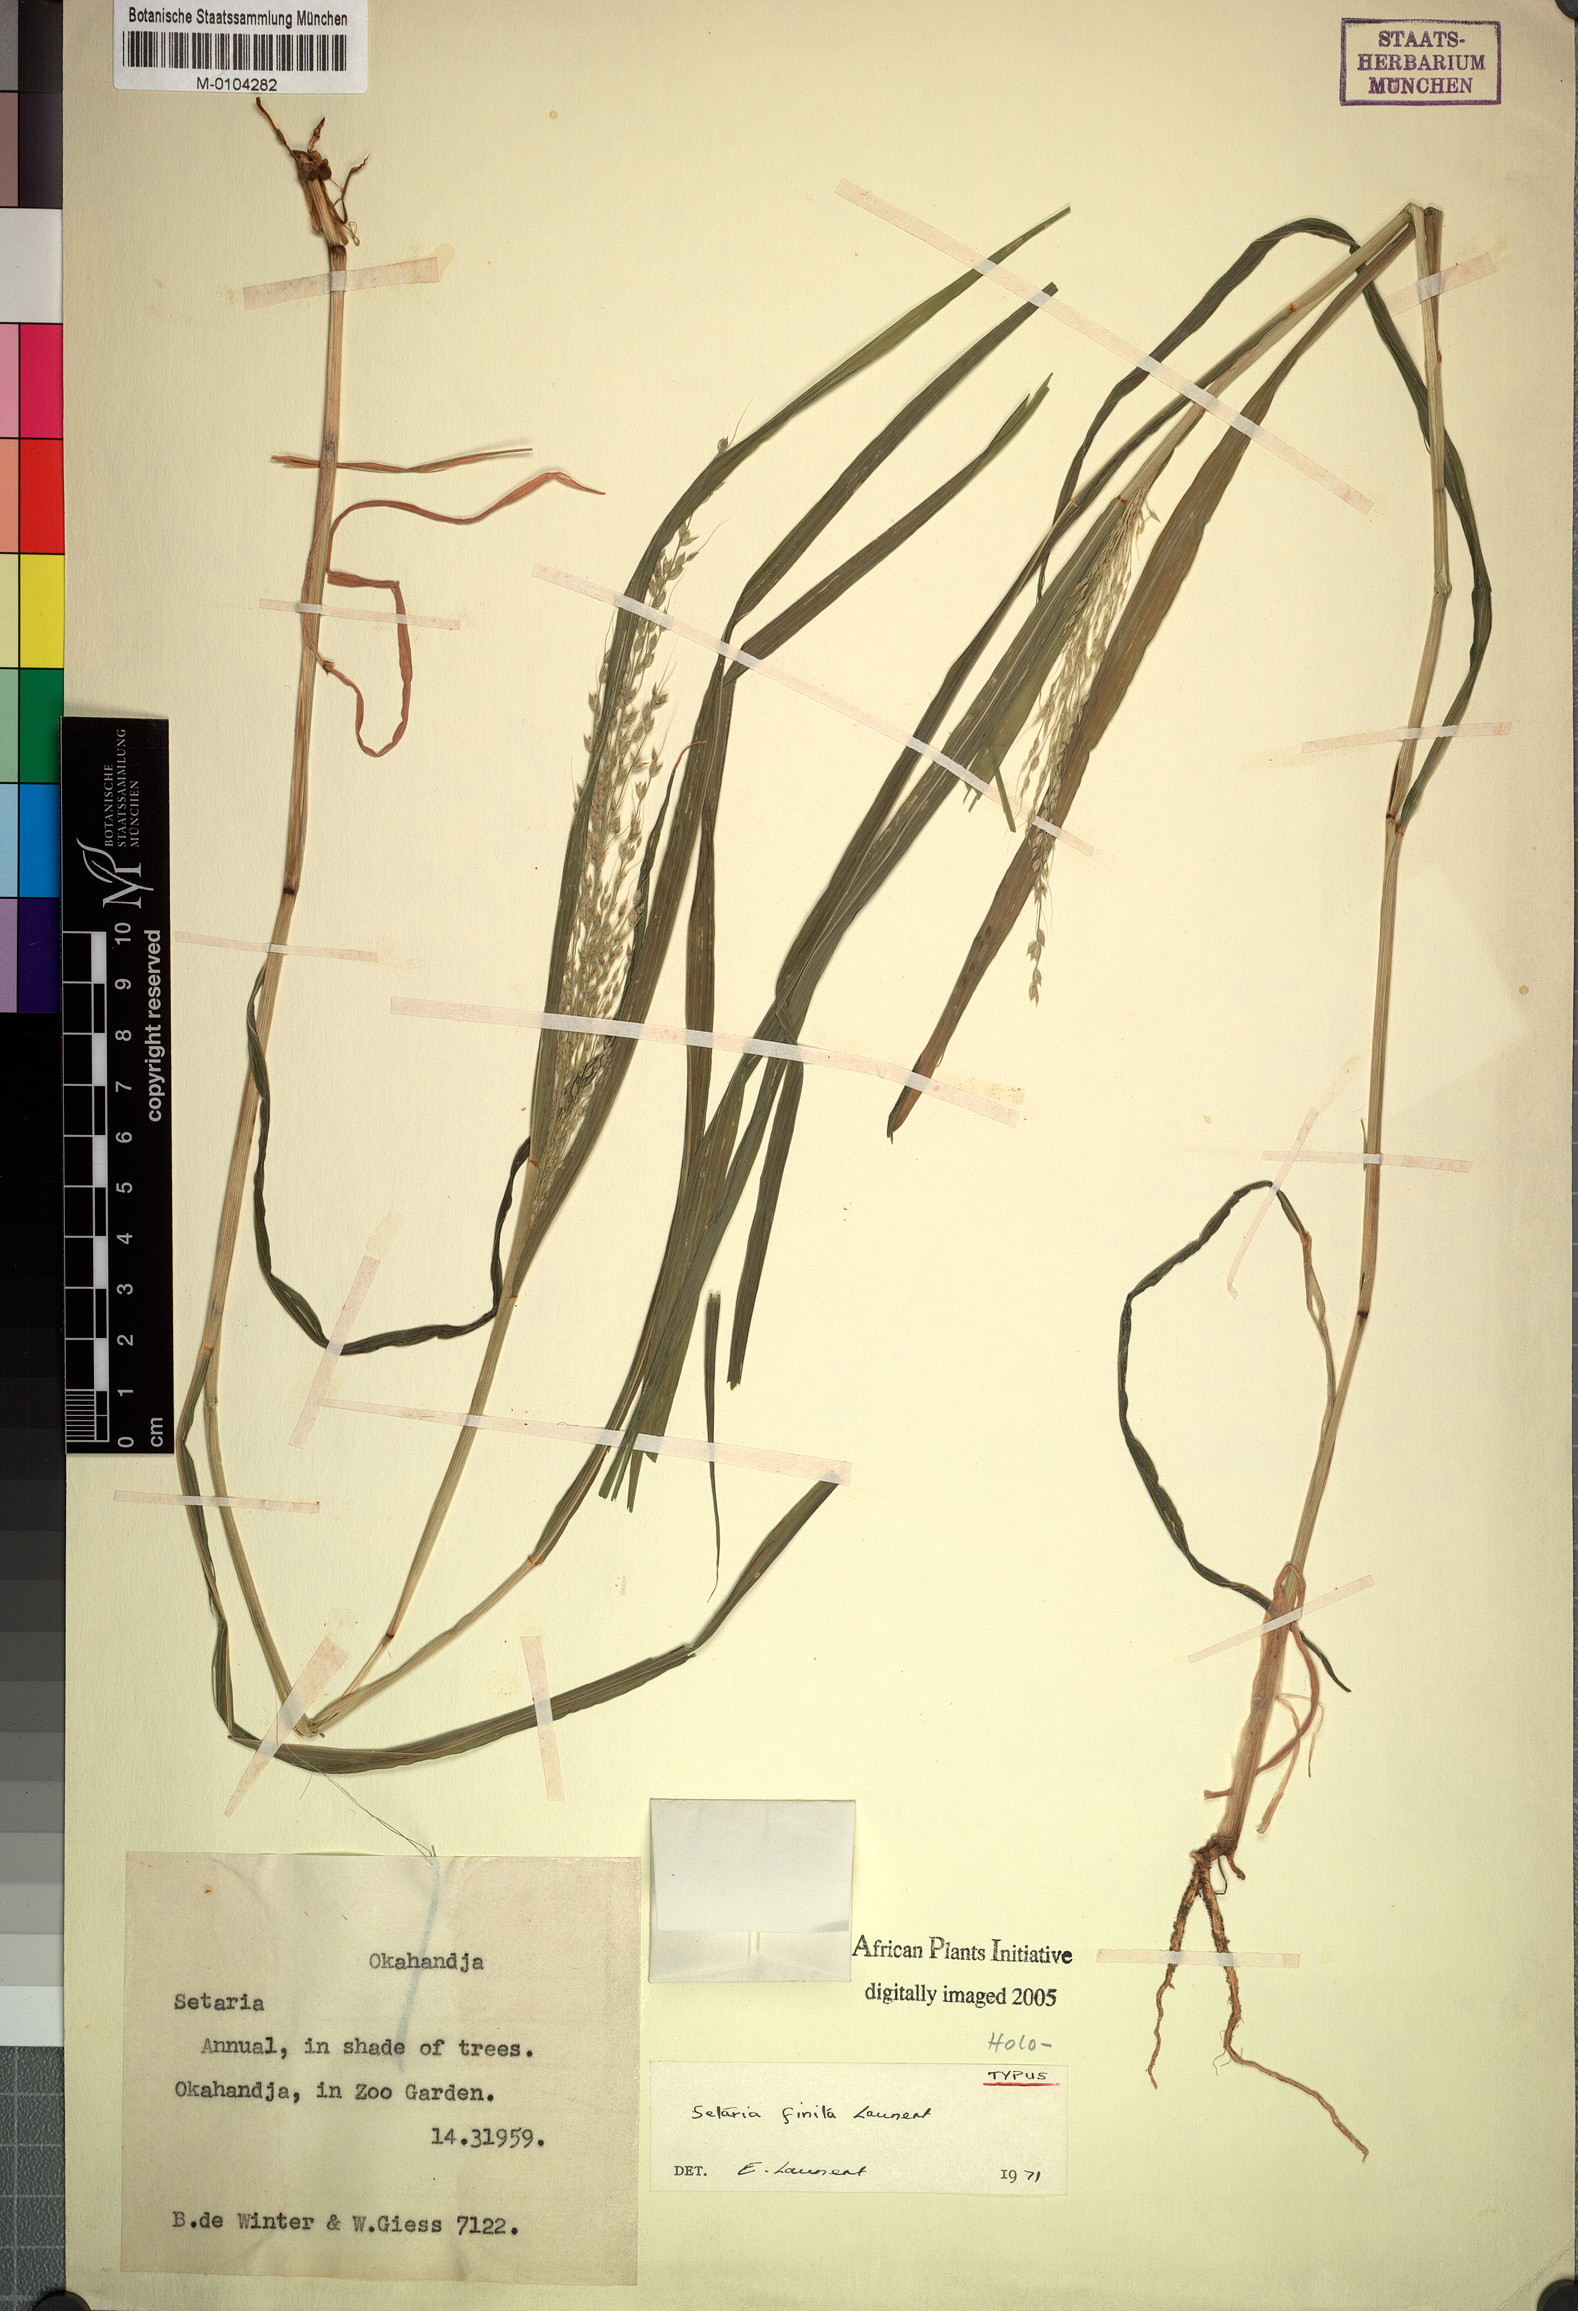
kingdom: Plantae
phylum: Tracheophyta
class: Liliopsida
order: Poales
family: Poaceae
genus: Setaria
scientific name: Setaria finita
